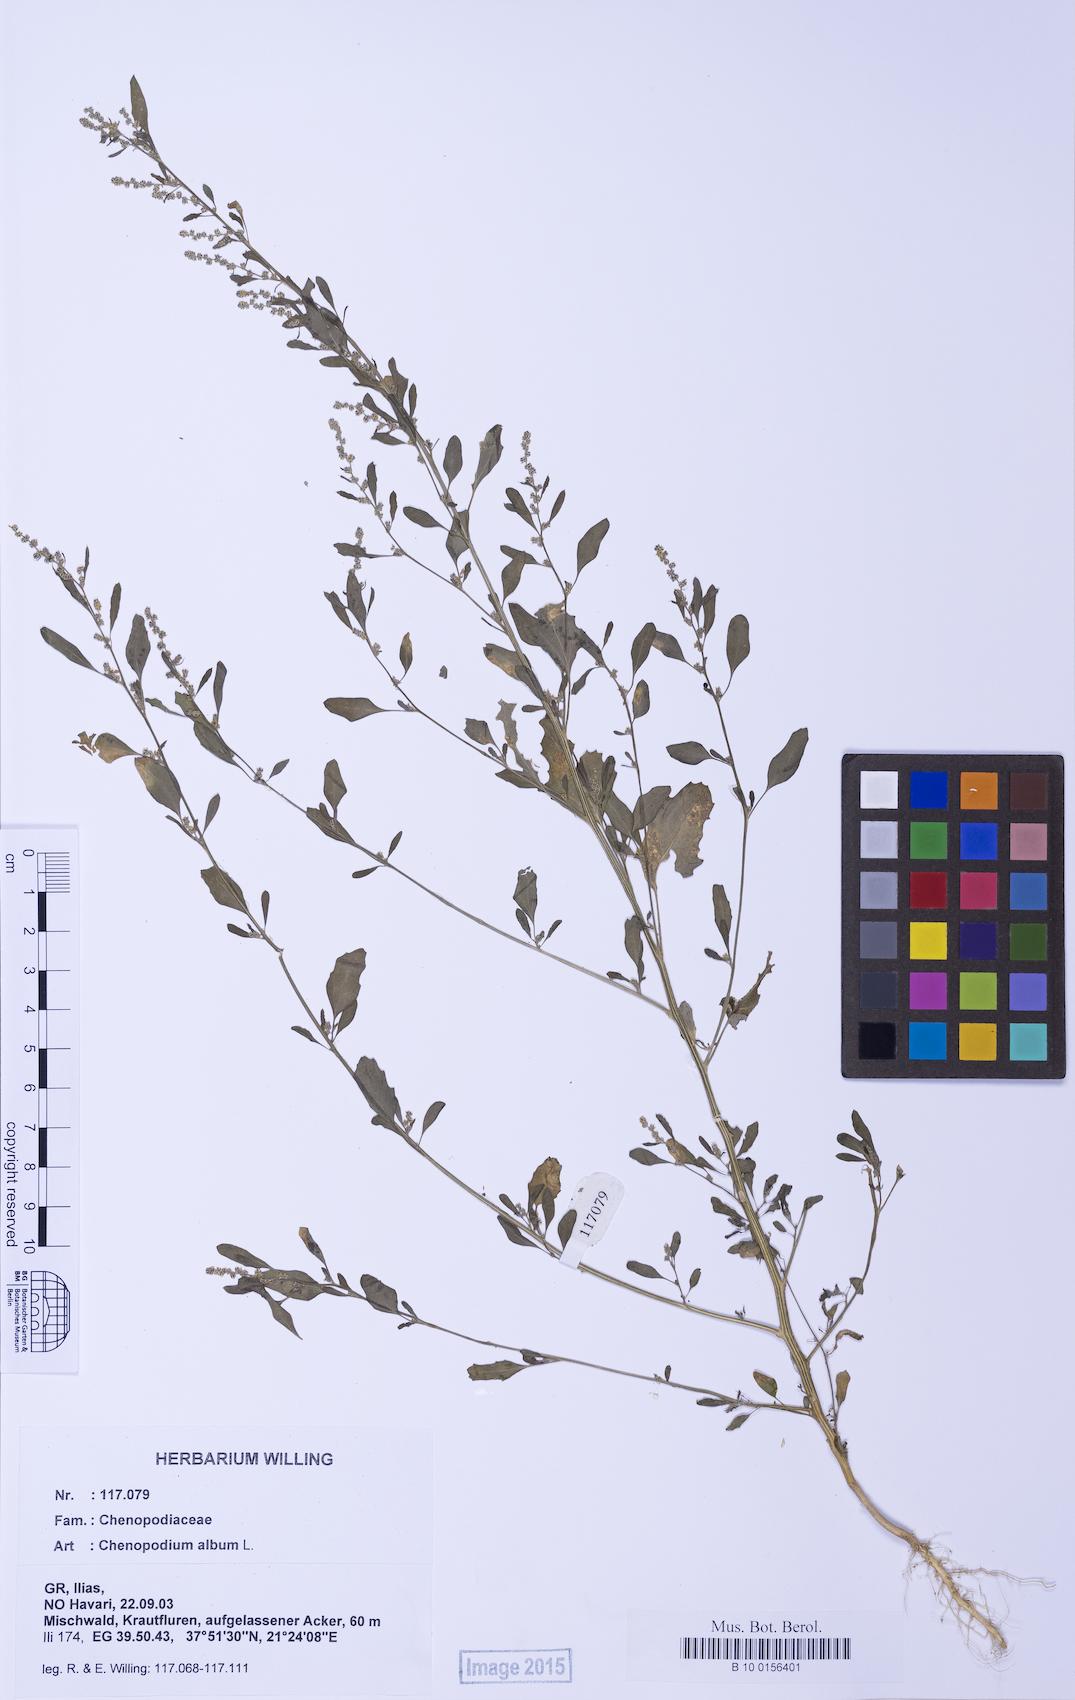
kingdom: Plantae
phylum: Tracheophyta
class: Magnoliopsida
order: Caryophyllales
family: Amaranthaceae
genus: Chenopodium
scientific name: Chenopodium striatiforme
